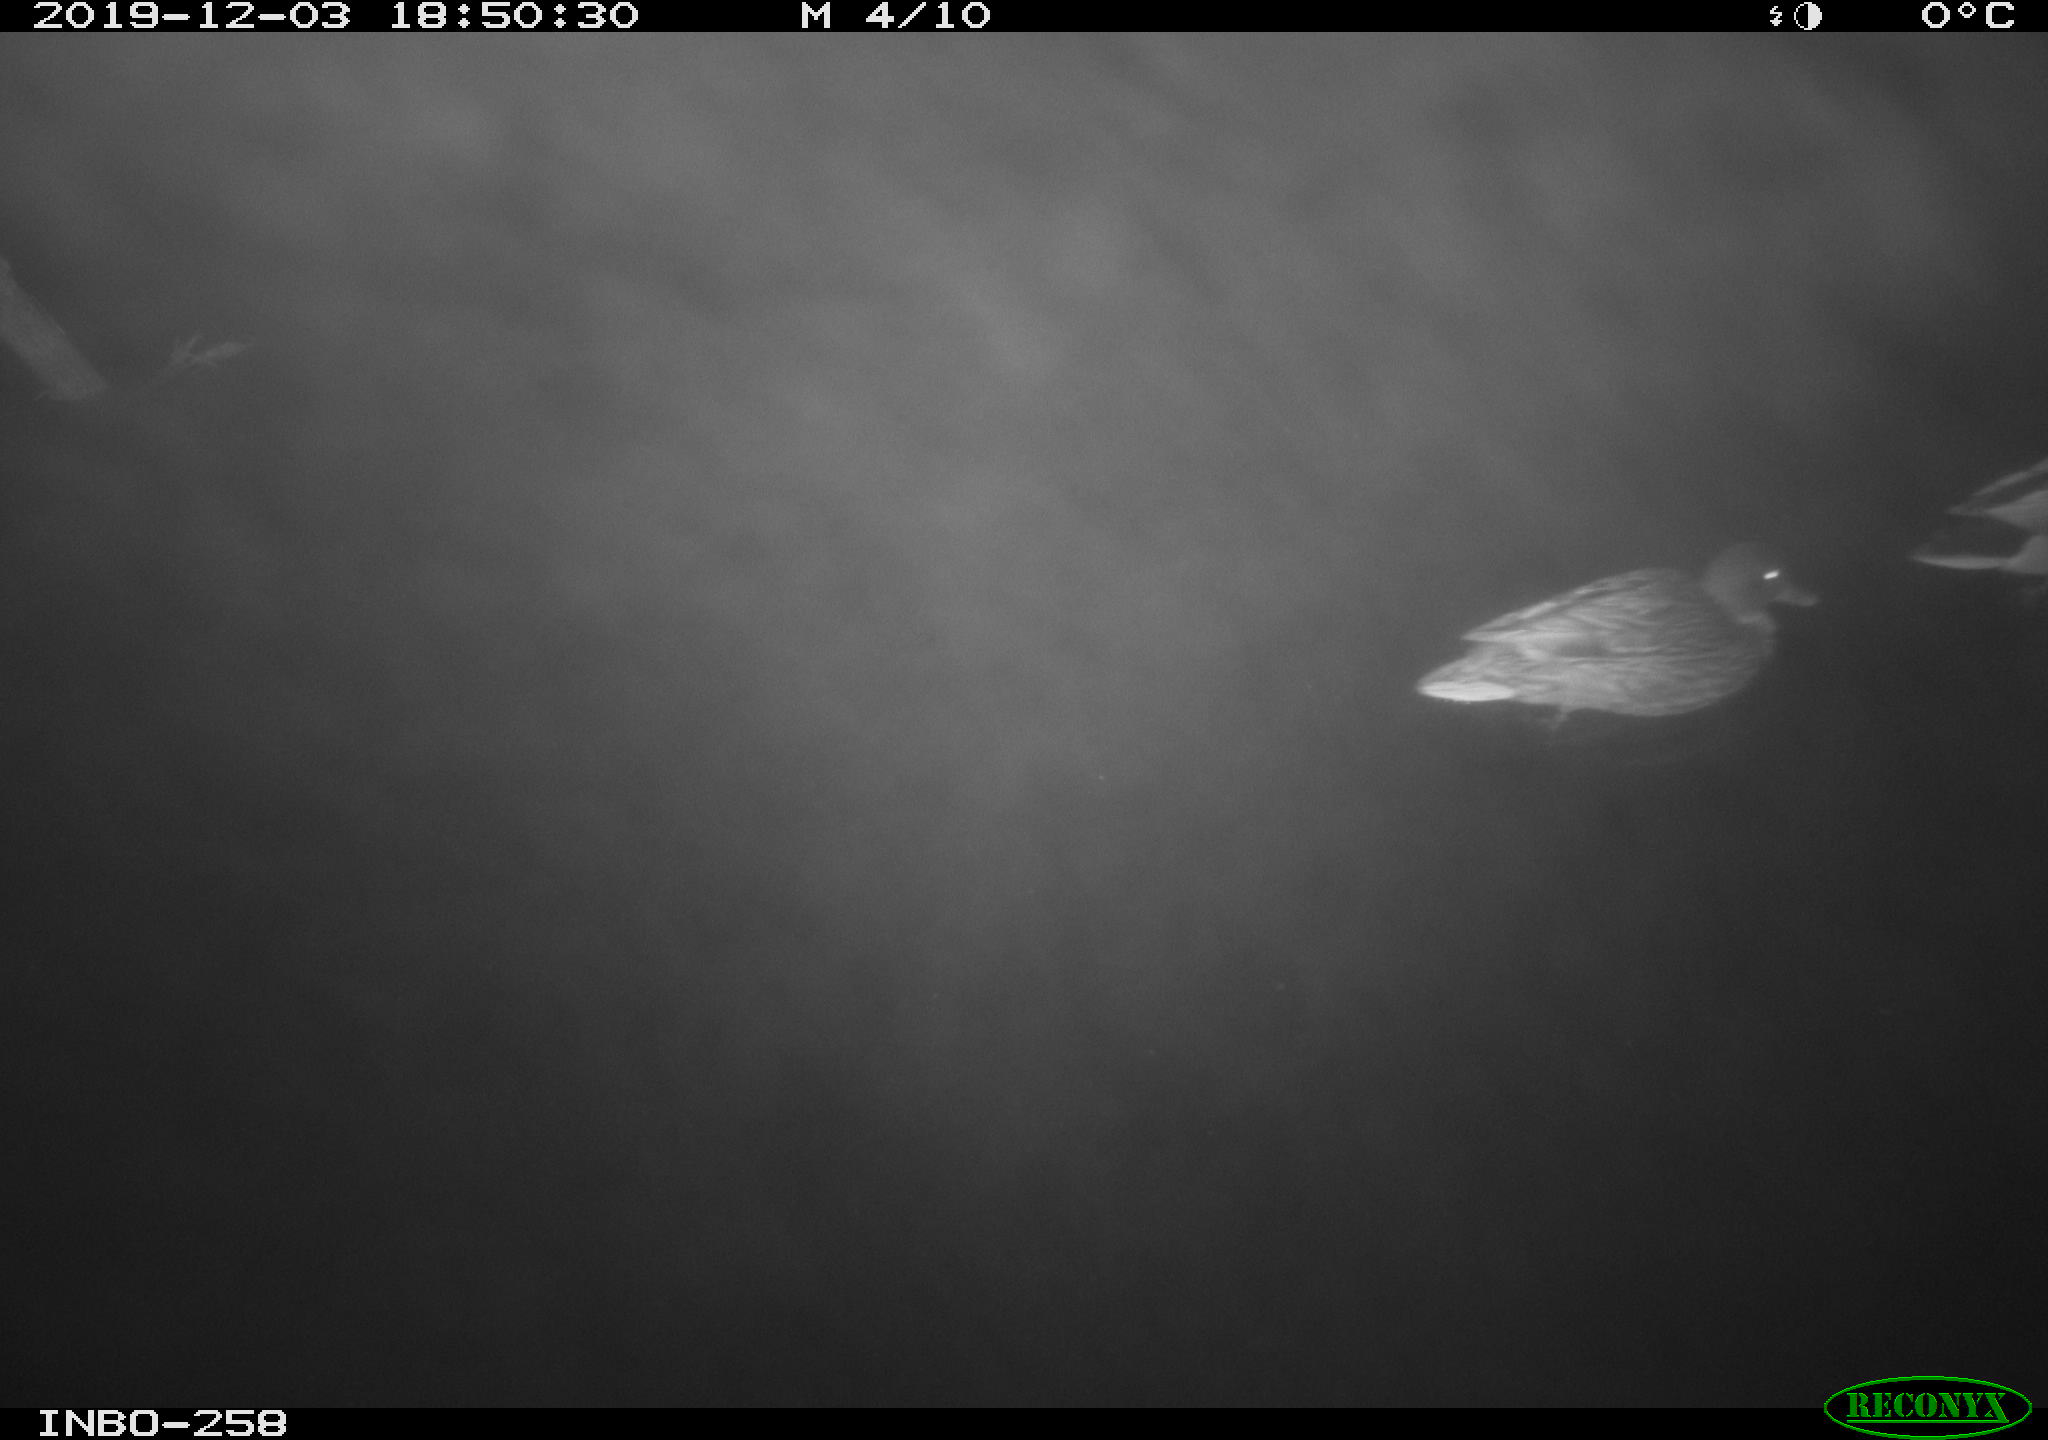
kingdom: Animalia
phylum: Chordata
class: Aves
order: Anseriformes
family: Anatidae
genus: Anas
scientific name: Anas platyrhynchos
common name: Mallard
